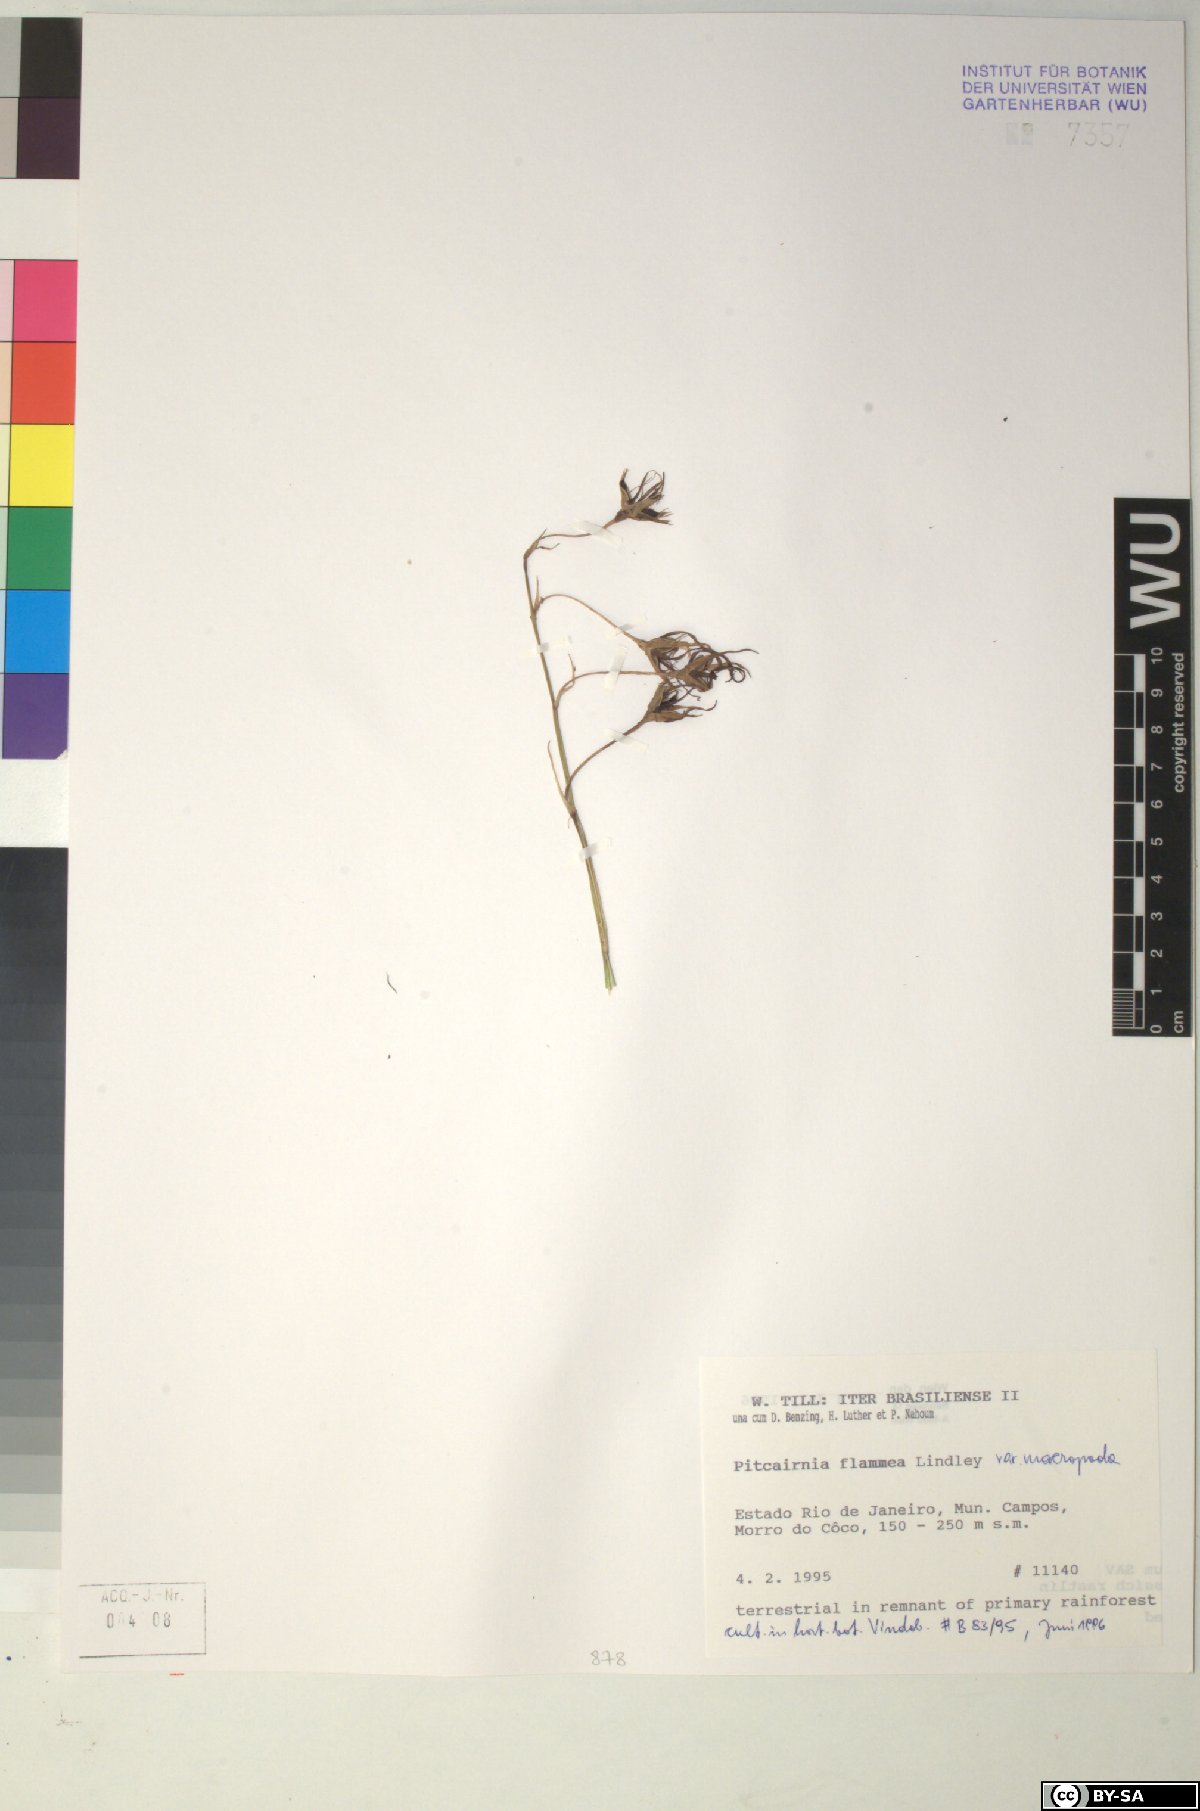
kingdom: Plantae
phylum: Tracheophyta
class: Liliopsida
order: Poales
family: Bromeliaceae
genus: Pitcairnia
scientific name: Pitcairnia flammea
